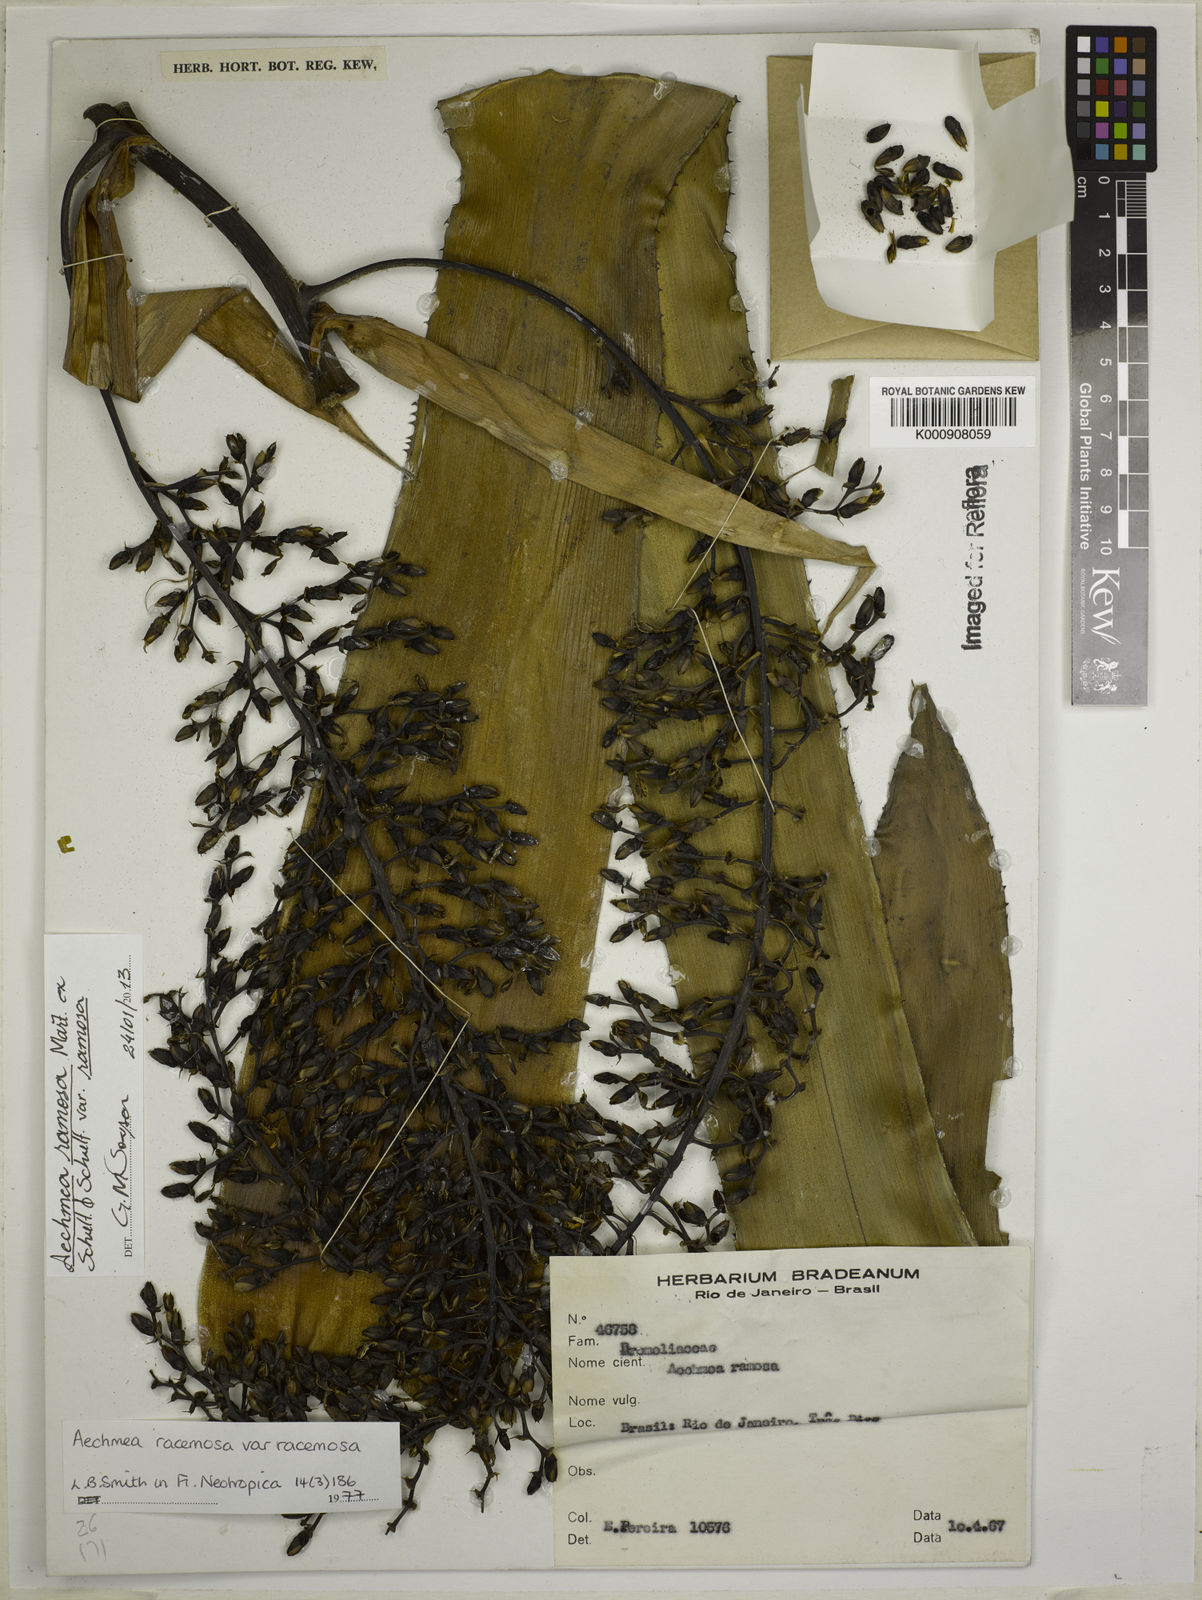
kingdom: Plantae
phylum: Tracheophyta
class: Liliopsida
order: Poales
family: Bromeliaceae
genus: Aechmea
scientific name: Aechmea
